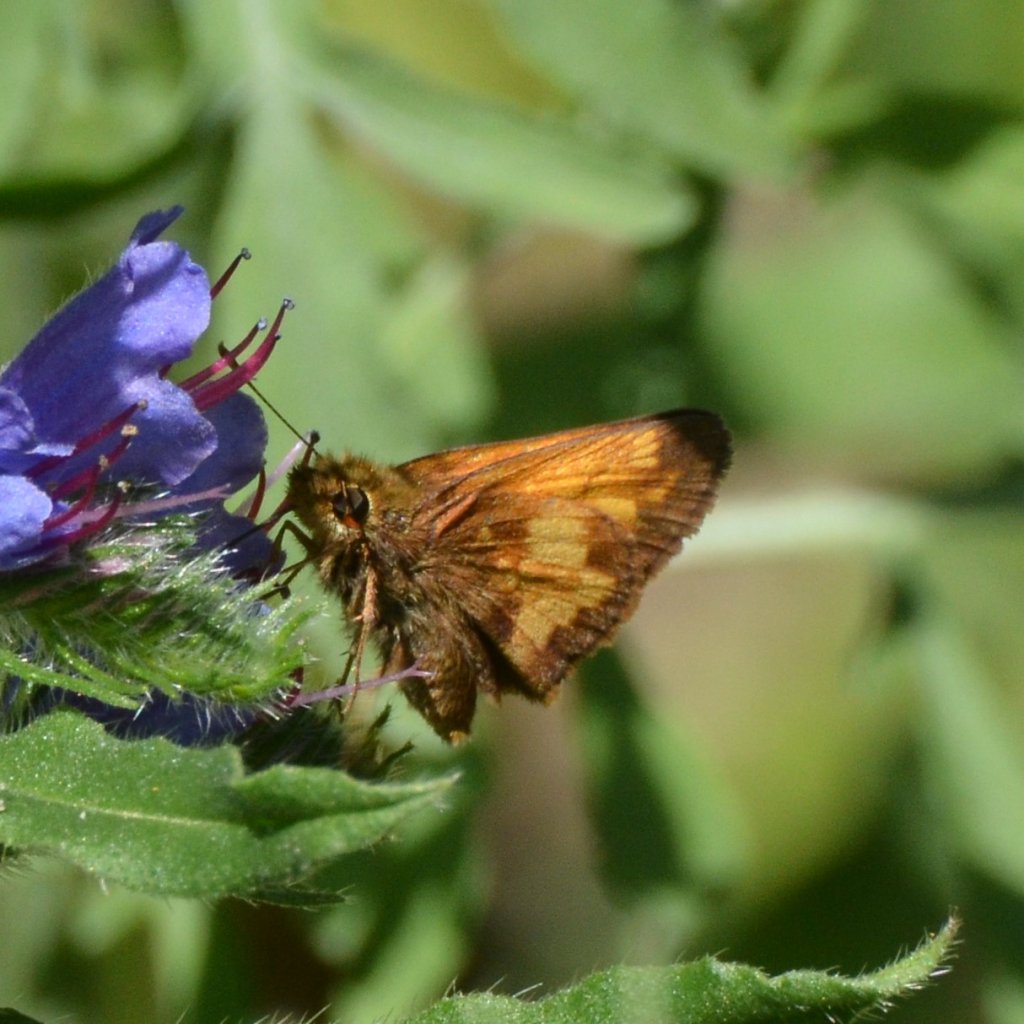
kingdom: Animalia
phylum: Arthropoda
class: Insecta
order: Lepidoptera
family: Hesperiidae
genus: Lon
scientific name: Lon hobomok
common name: Hobomok Skipper
